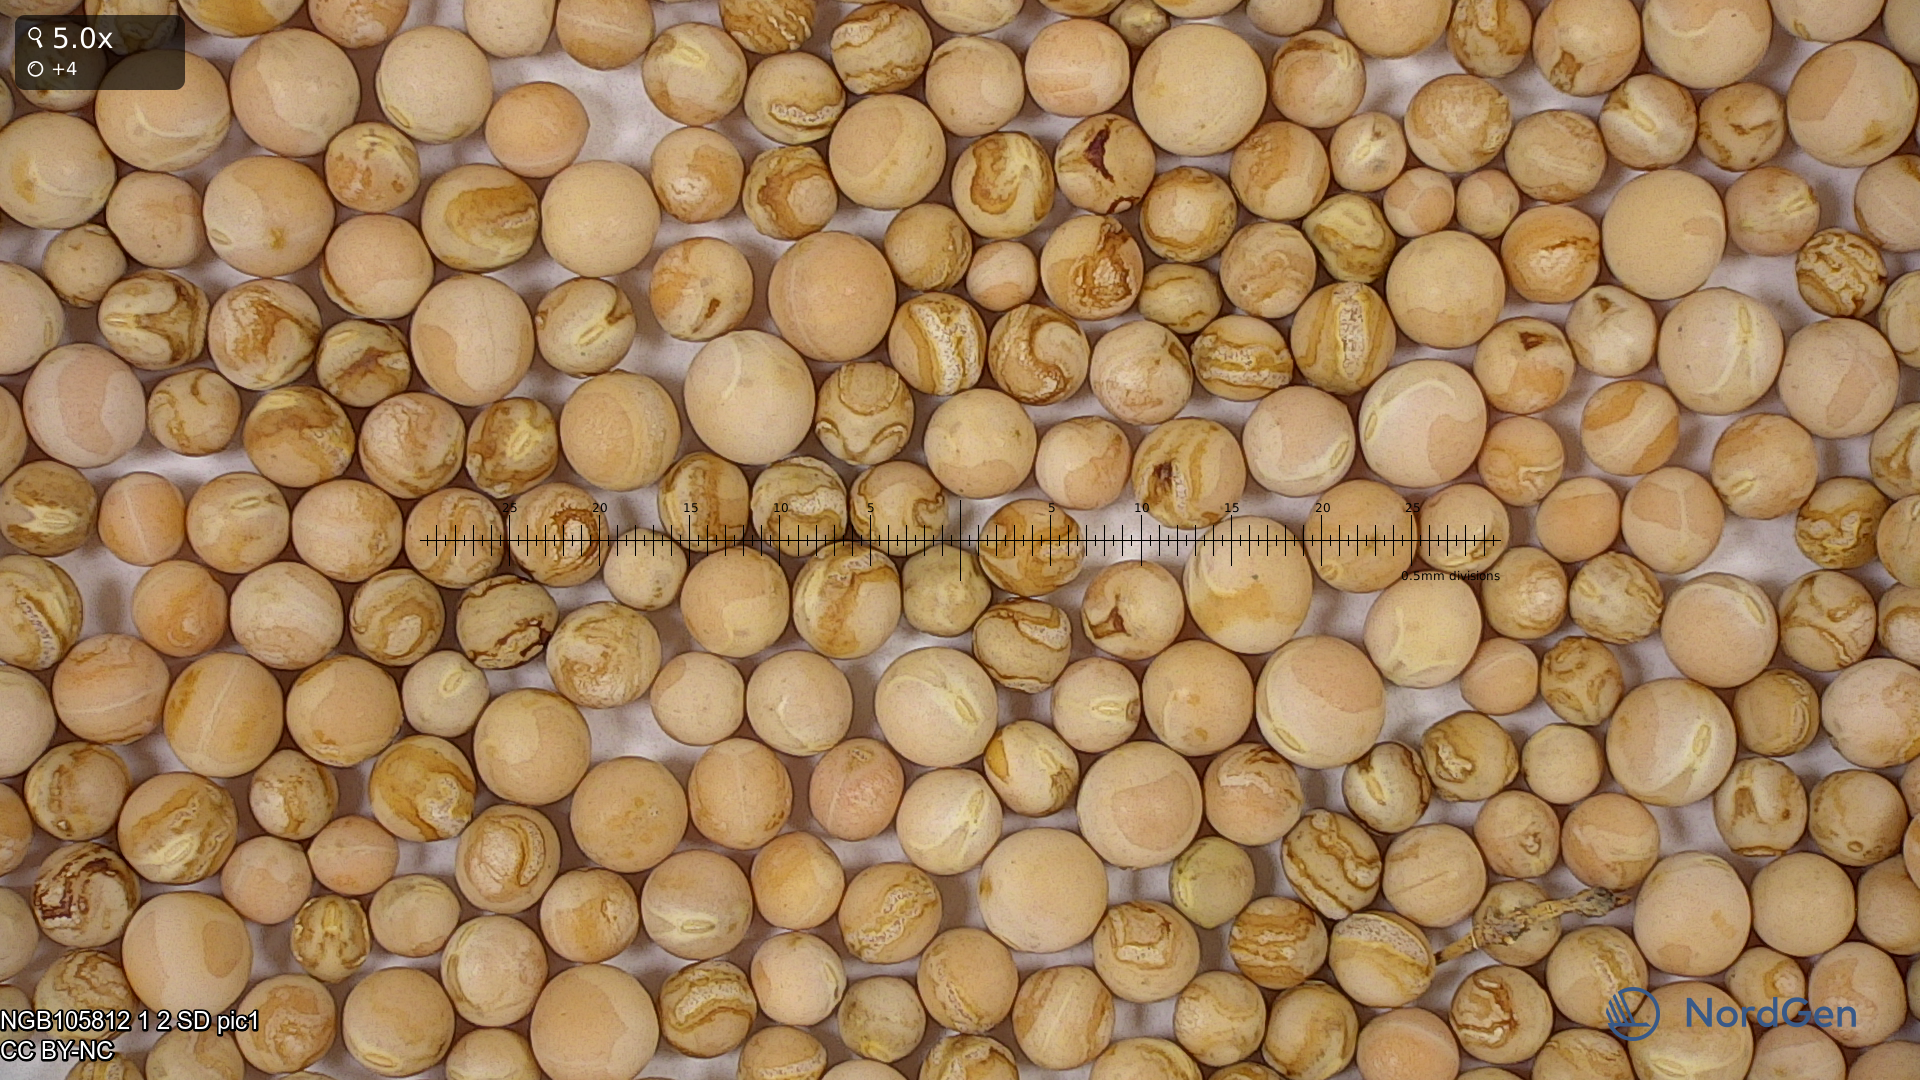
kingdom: Plantae
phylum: Tracheophyta
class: Magnoliopsida
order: Fabales
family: Fabaceae
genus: Lathyrus
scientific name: Lathyrus oleraceus
